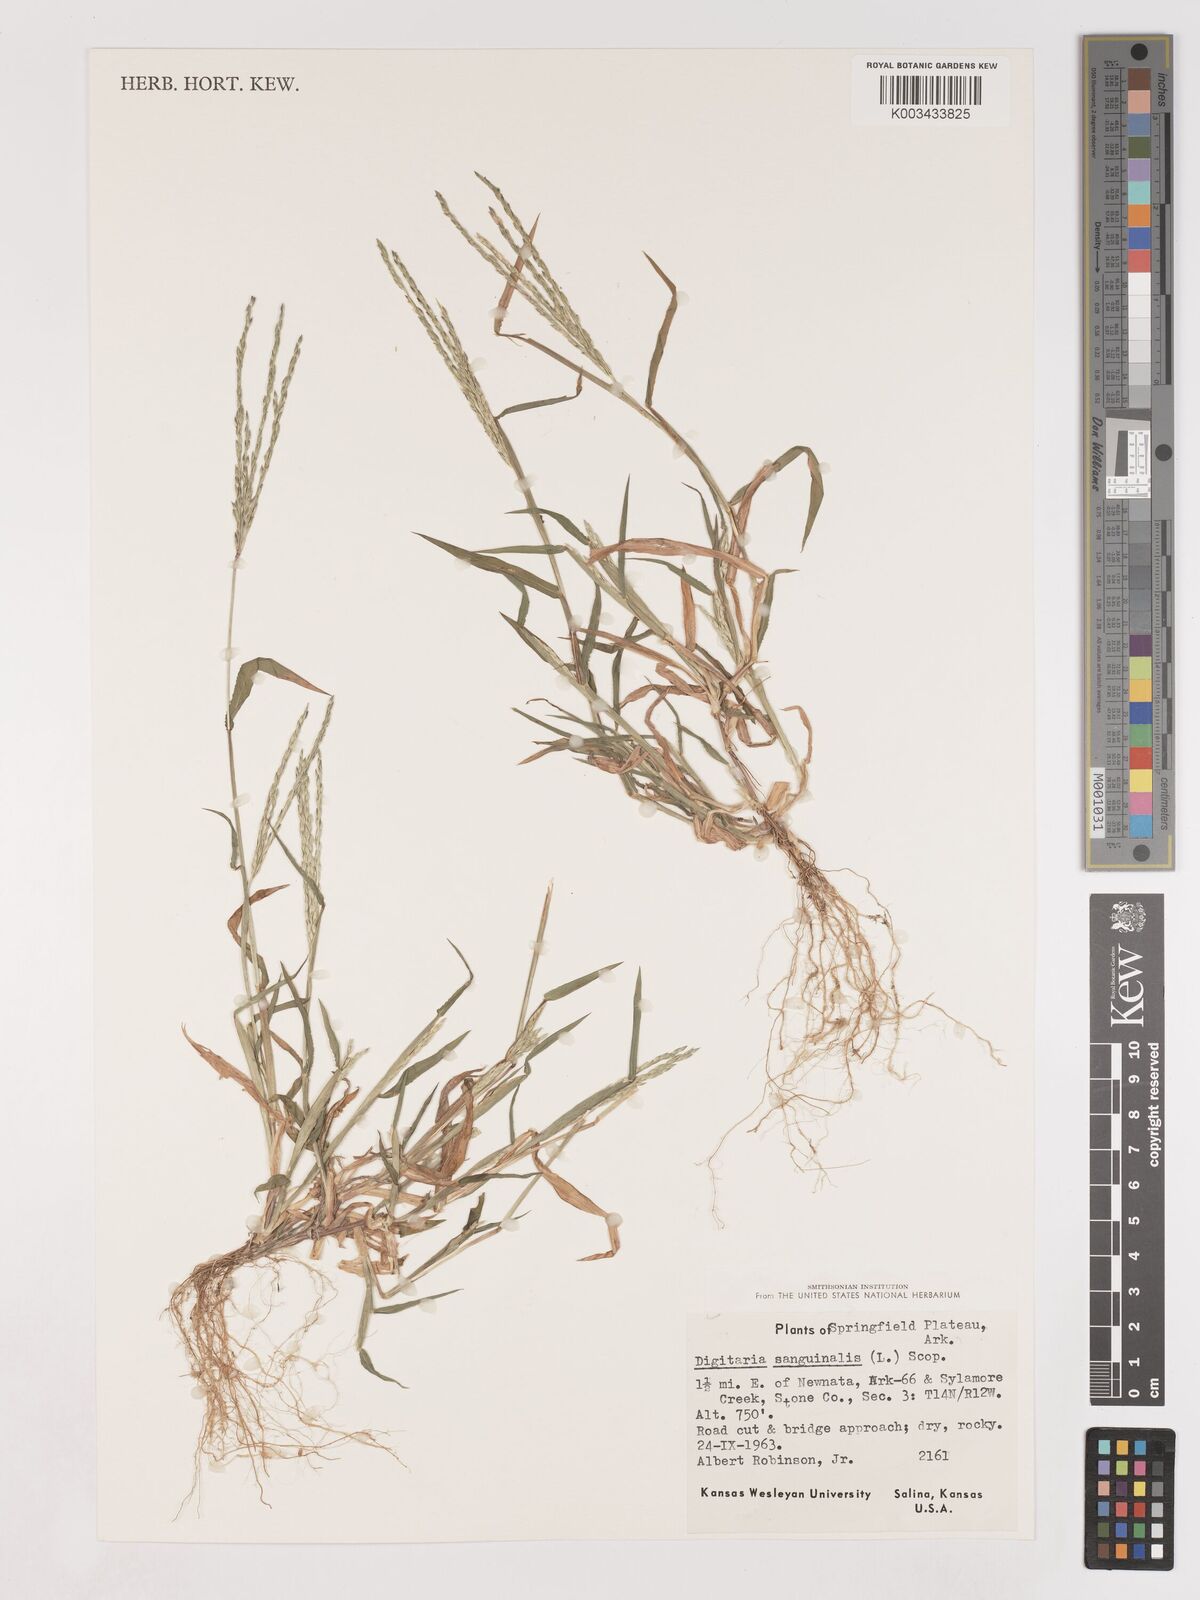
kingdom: Plantae
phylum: Tracheophyta
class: Liliopsida
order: Poales
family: Poaceae
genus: Digitaria
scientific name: Digitaria ciliaris
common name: Tropical finger-grass
